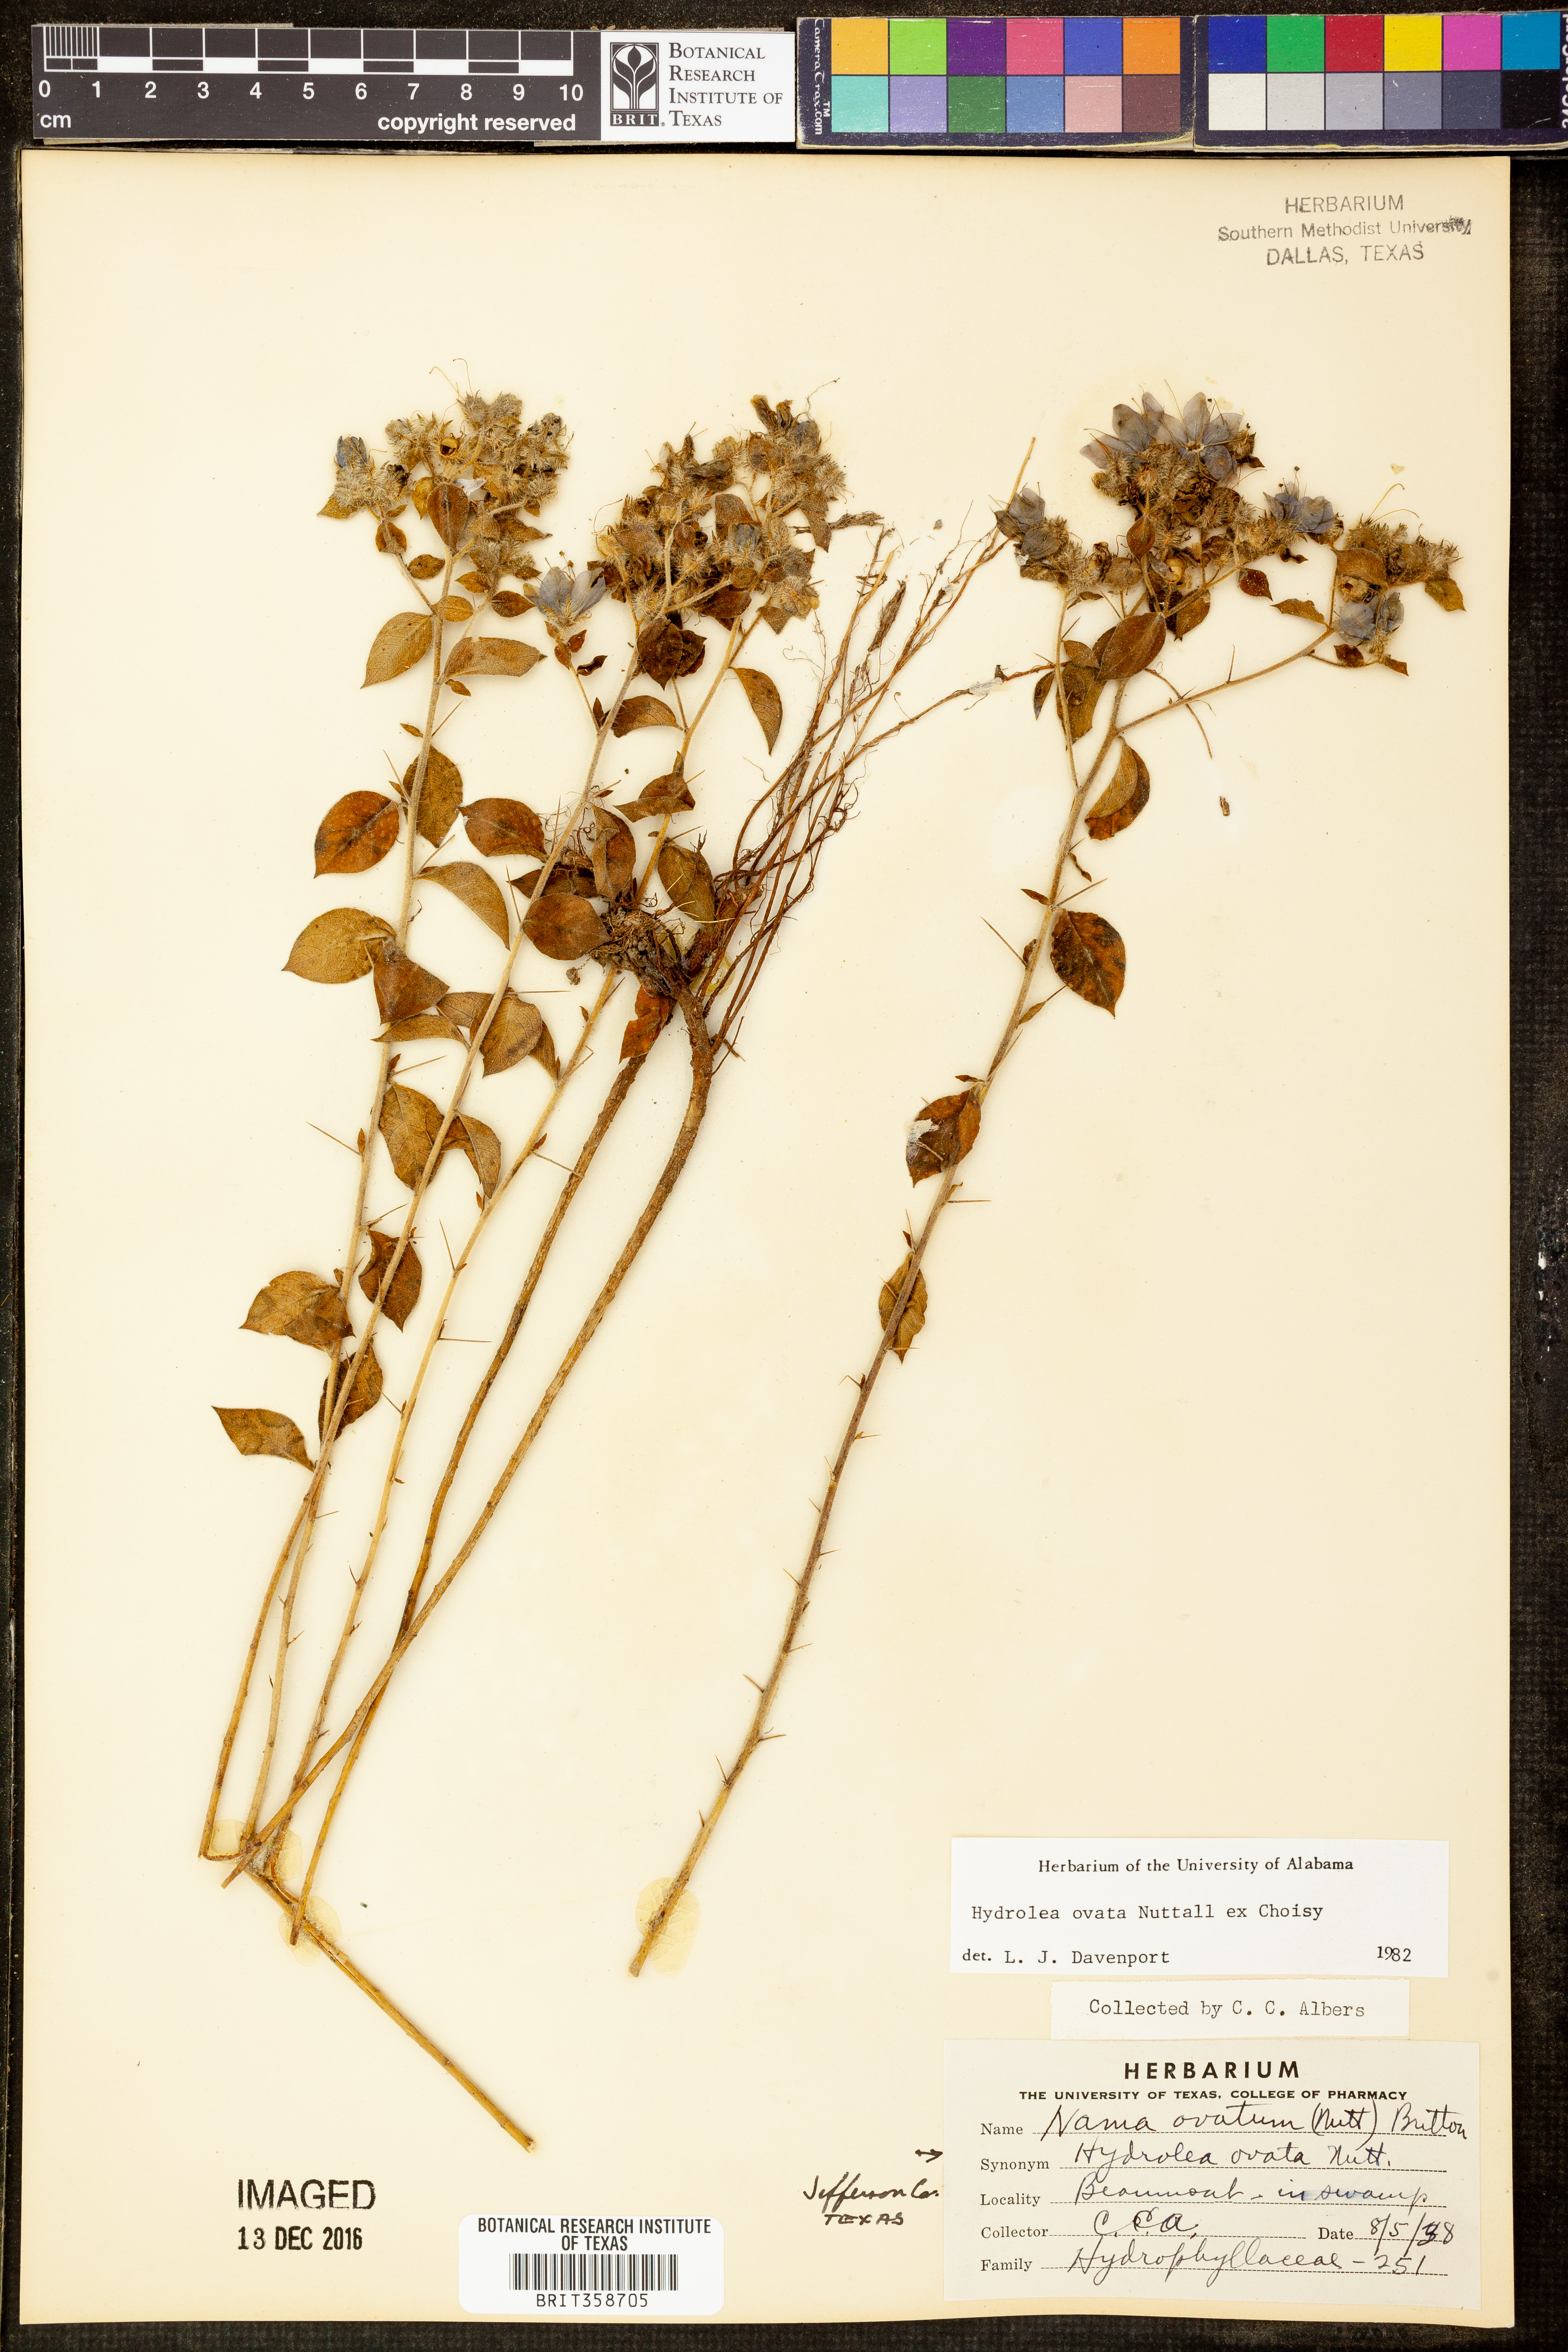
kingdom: Plantae
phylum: Tracheophyta
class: Magnoliopsida
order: Solanales
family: Hydroleaceae
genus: Hydrolea
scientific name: Hydrolea ovata
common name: Ovate false fiddleleaf
